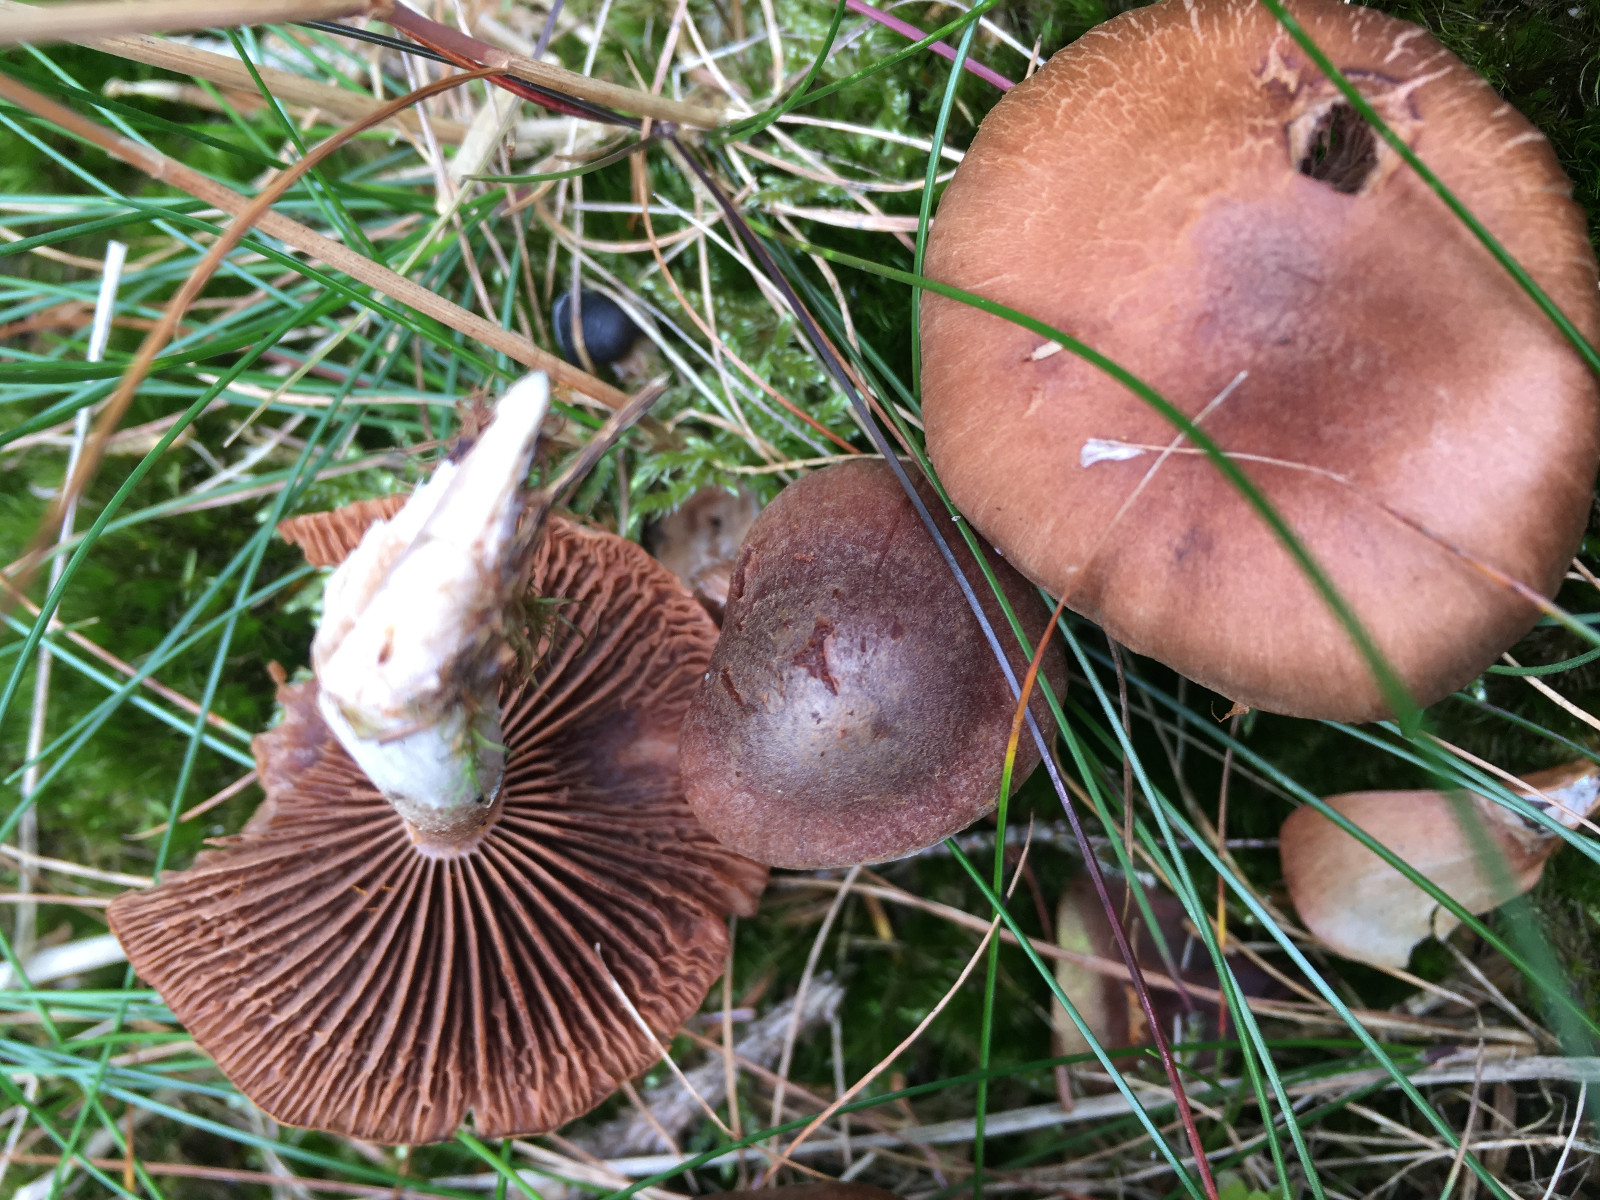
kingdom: Fungi
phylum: Basidiomycota
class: Agaricomycetes
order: Agaricales
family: Cortinariaceae
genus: Cortinarius
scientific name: Cortinarius
